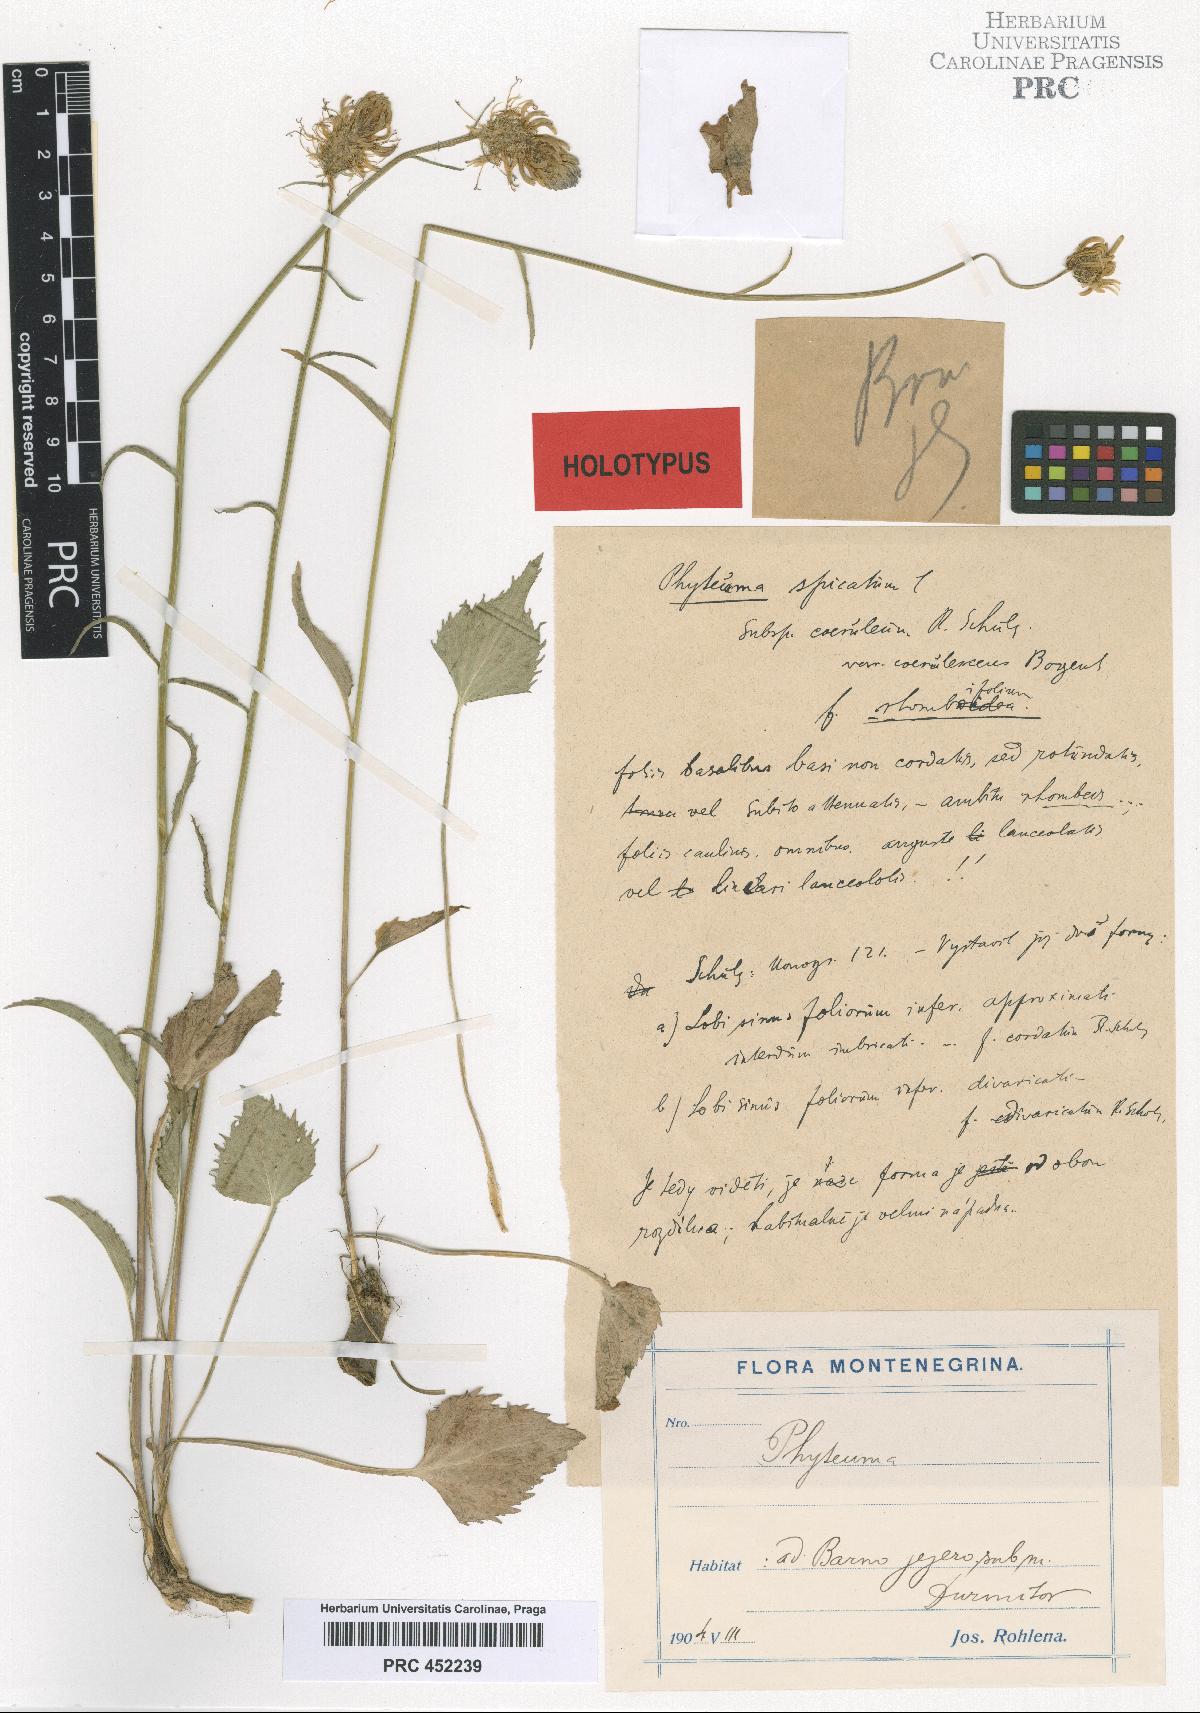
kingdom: Plantae
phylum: Tracheophyta
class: Magnoliopsida
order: Asterales
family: Campanulaceae
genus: Phyteuma
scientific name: Phyteuma spicatum
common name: Spiked rampion
